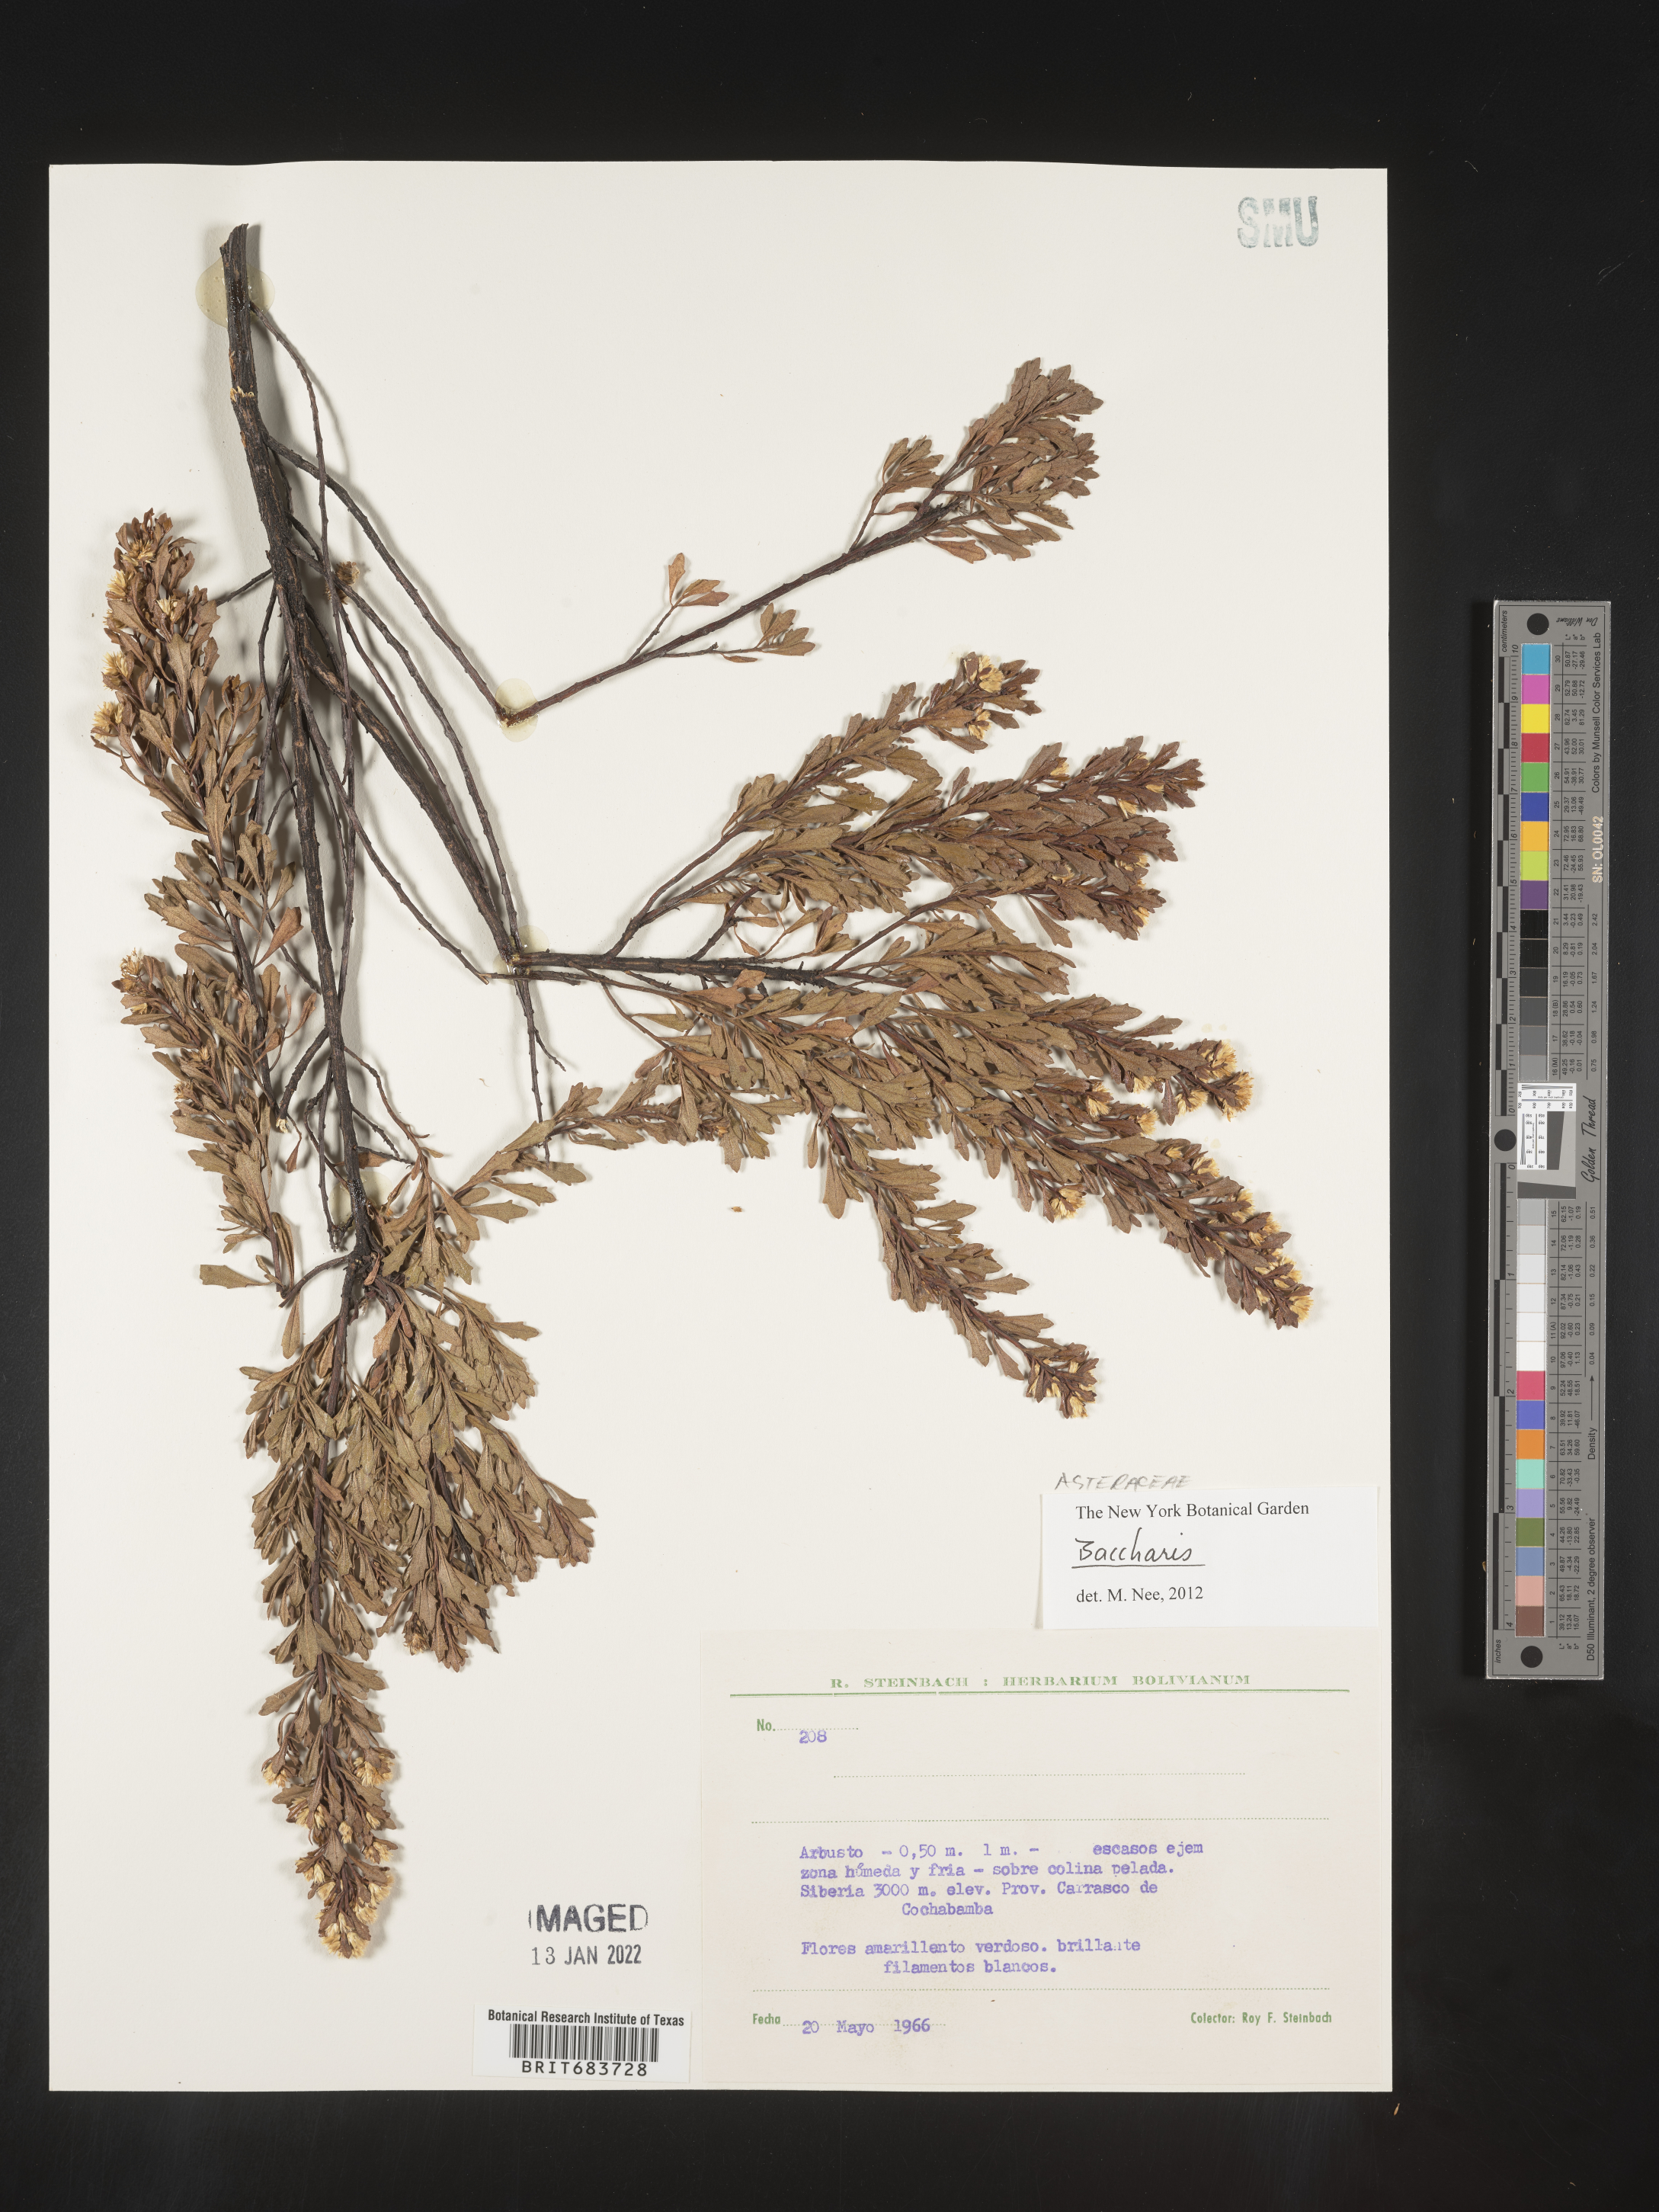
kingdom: Plantae
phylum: Tracheophyta
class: Magnoliopsida
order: Asterales
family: Asteraceae
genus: Baccharis
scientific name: Baccharis
